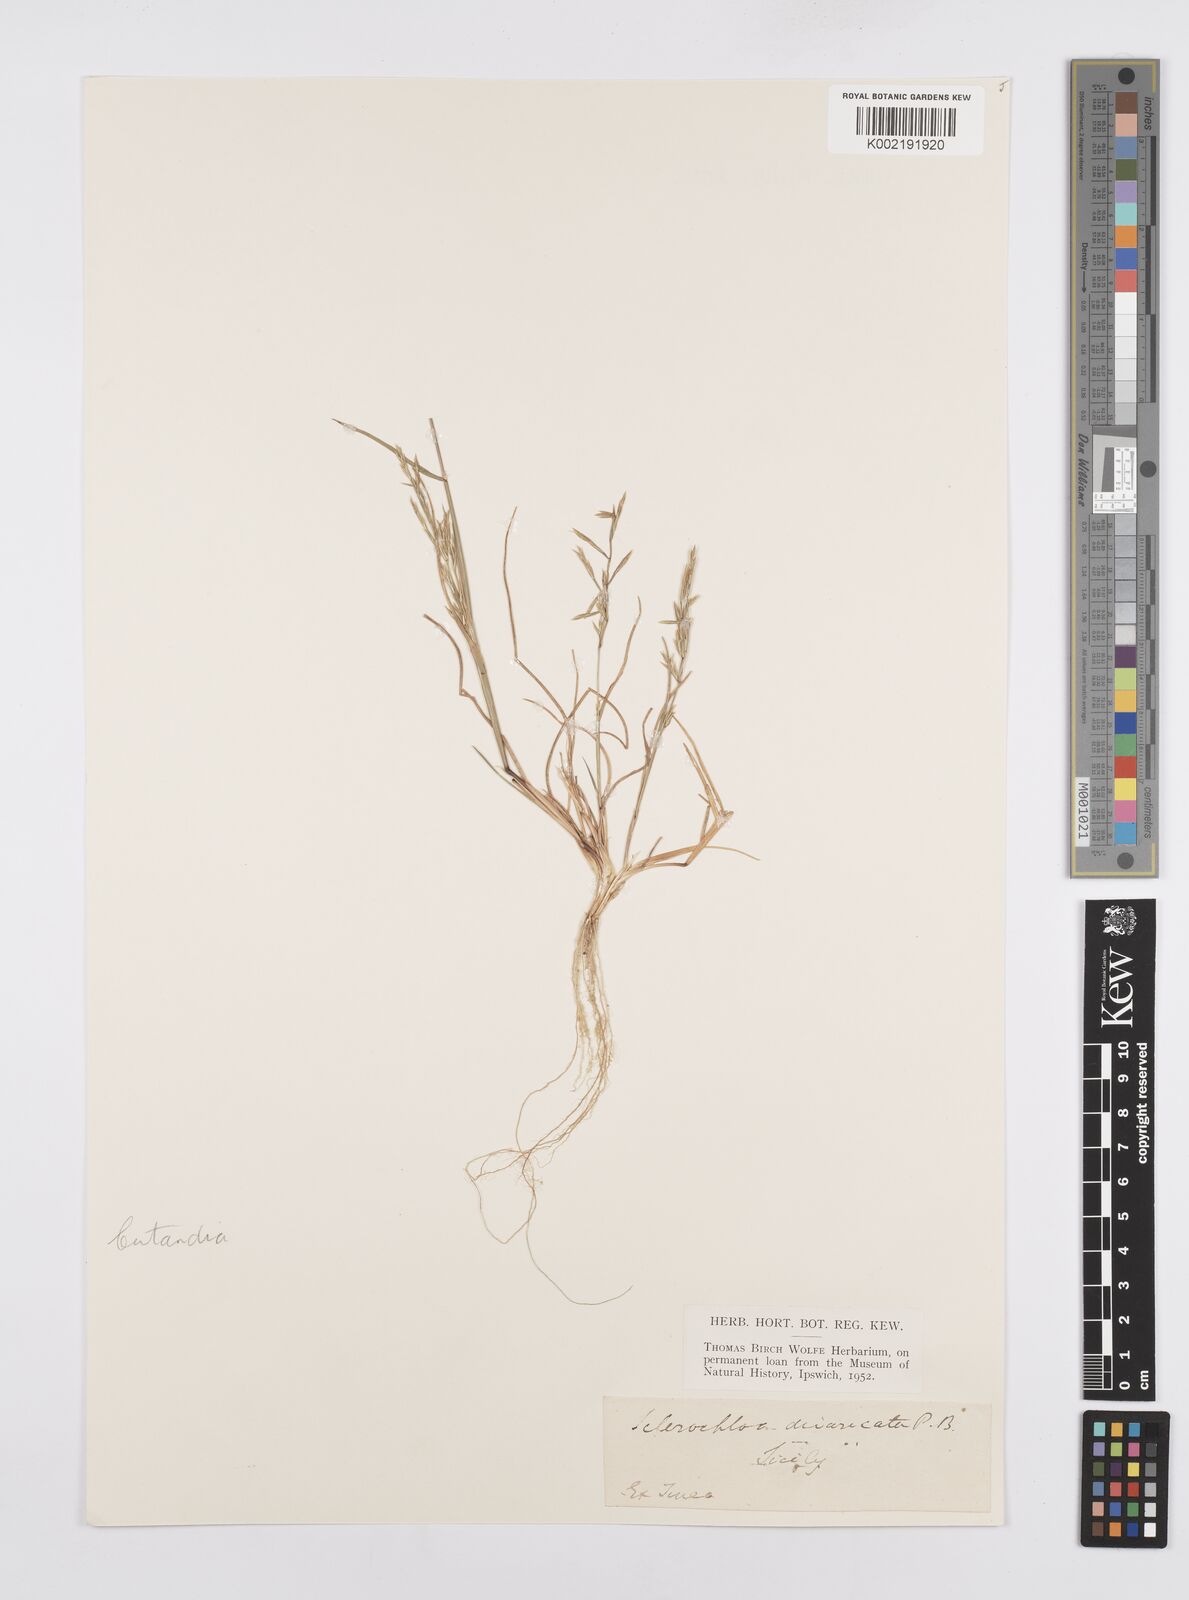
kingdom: Plantae
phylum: Tracheophyta
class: Liliopsida
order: Poales
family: Poaceae
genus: Cutandia
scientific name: Cutandia maritima
